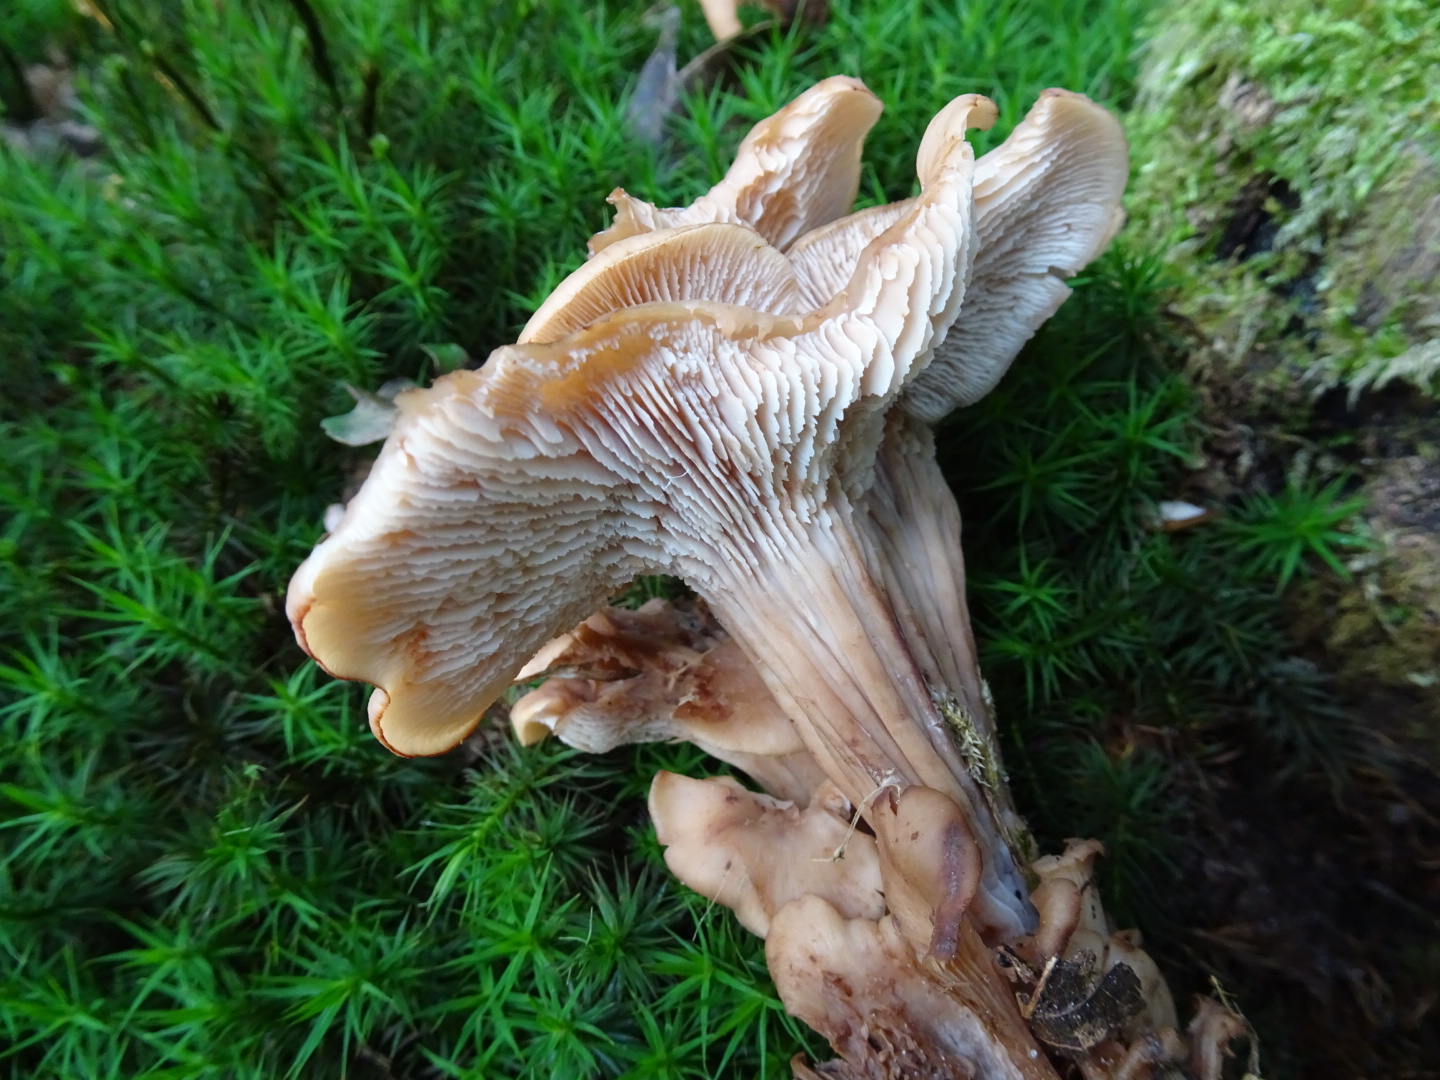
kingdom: Fungi
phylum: Basidiomycota
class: Agaricomycetes
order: Russulales
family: Auriscalpiaceae
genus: Lentinellus
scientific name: Lentinellus cochleatus
